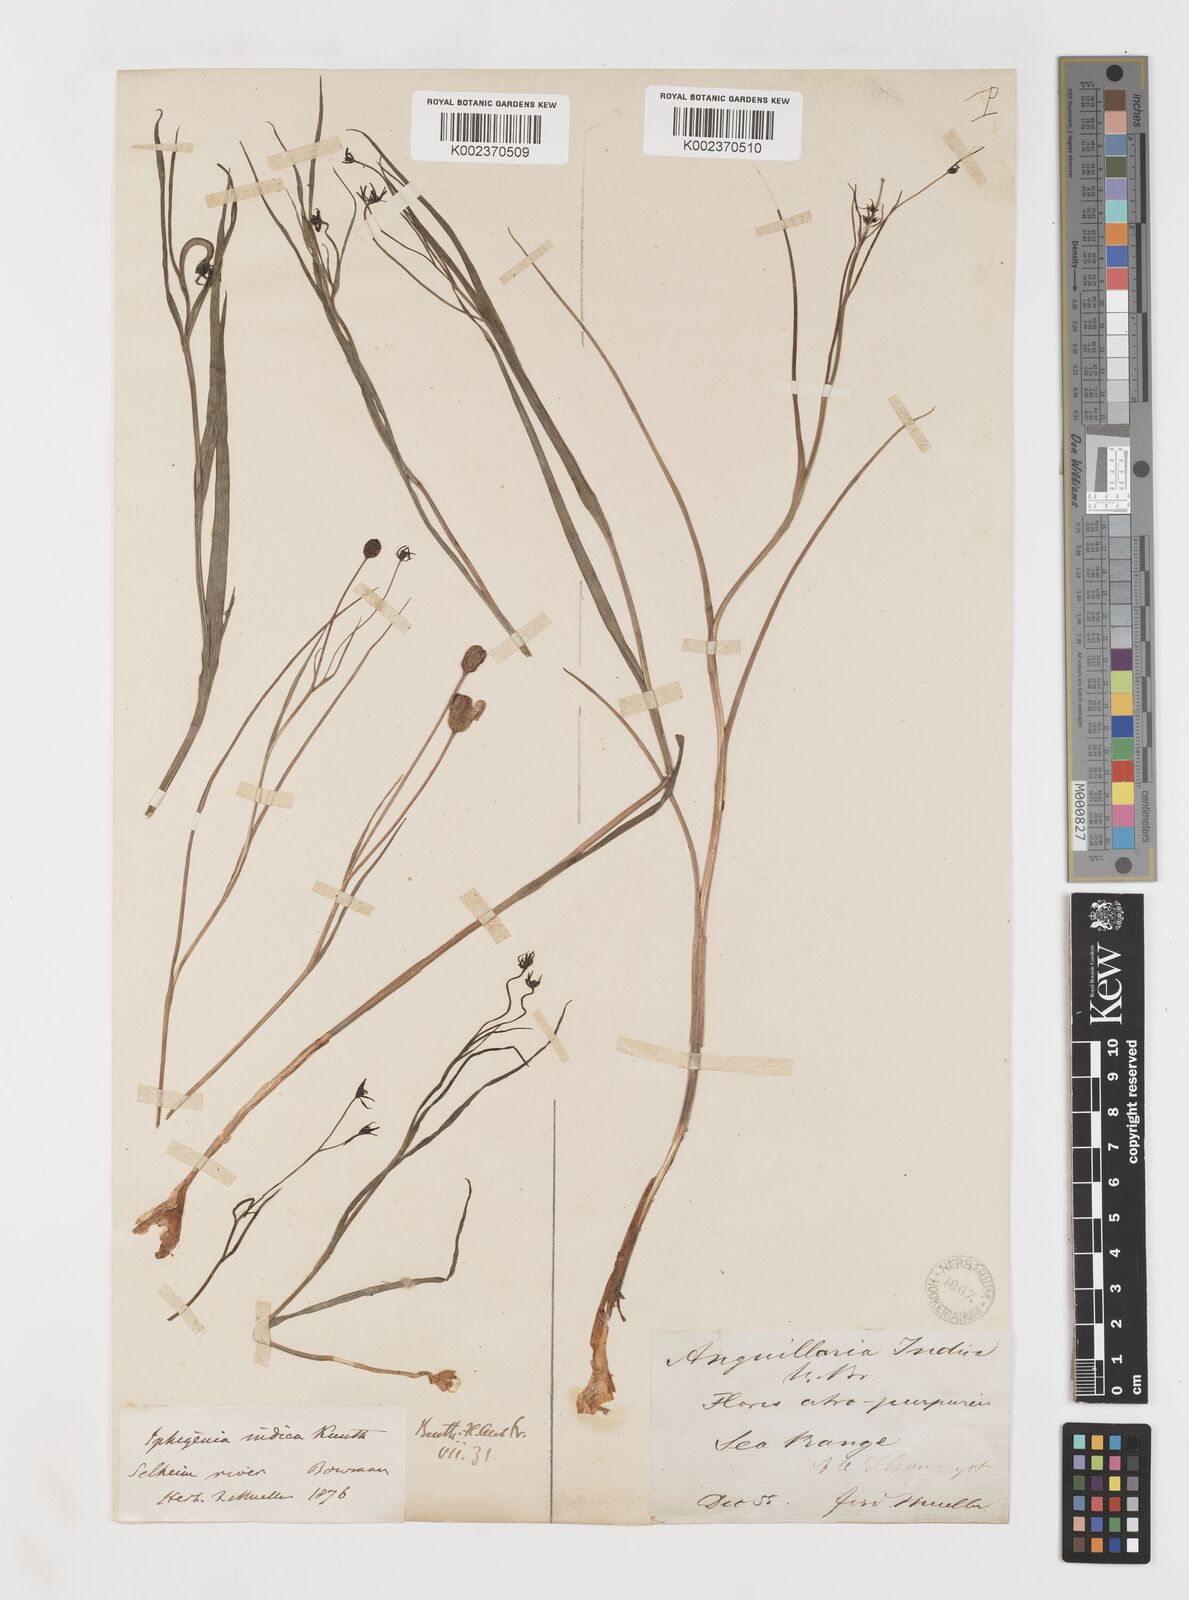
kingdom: Plantae
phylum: Tracheophyta
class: Liliopsida
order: Liliales
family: Colchicaceae
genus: Iphigenia
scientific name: Iphigenia indica
